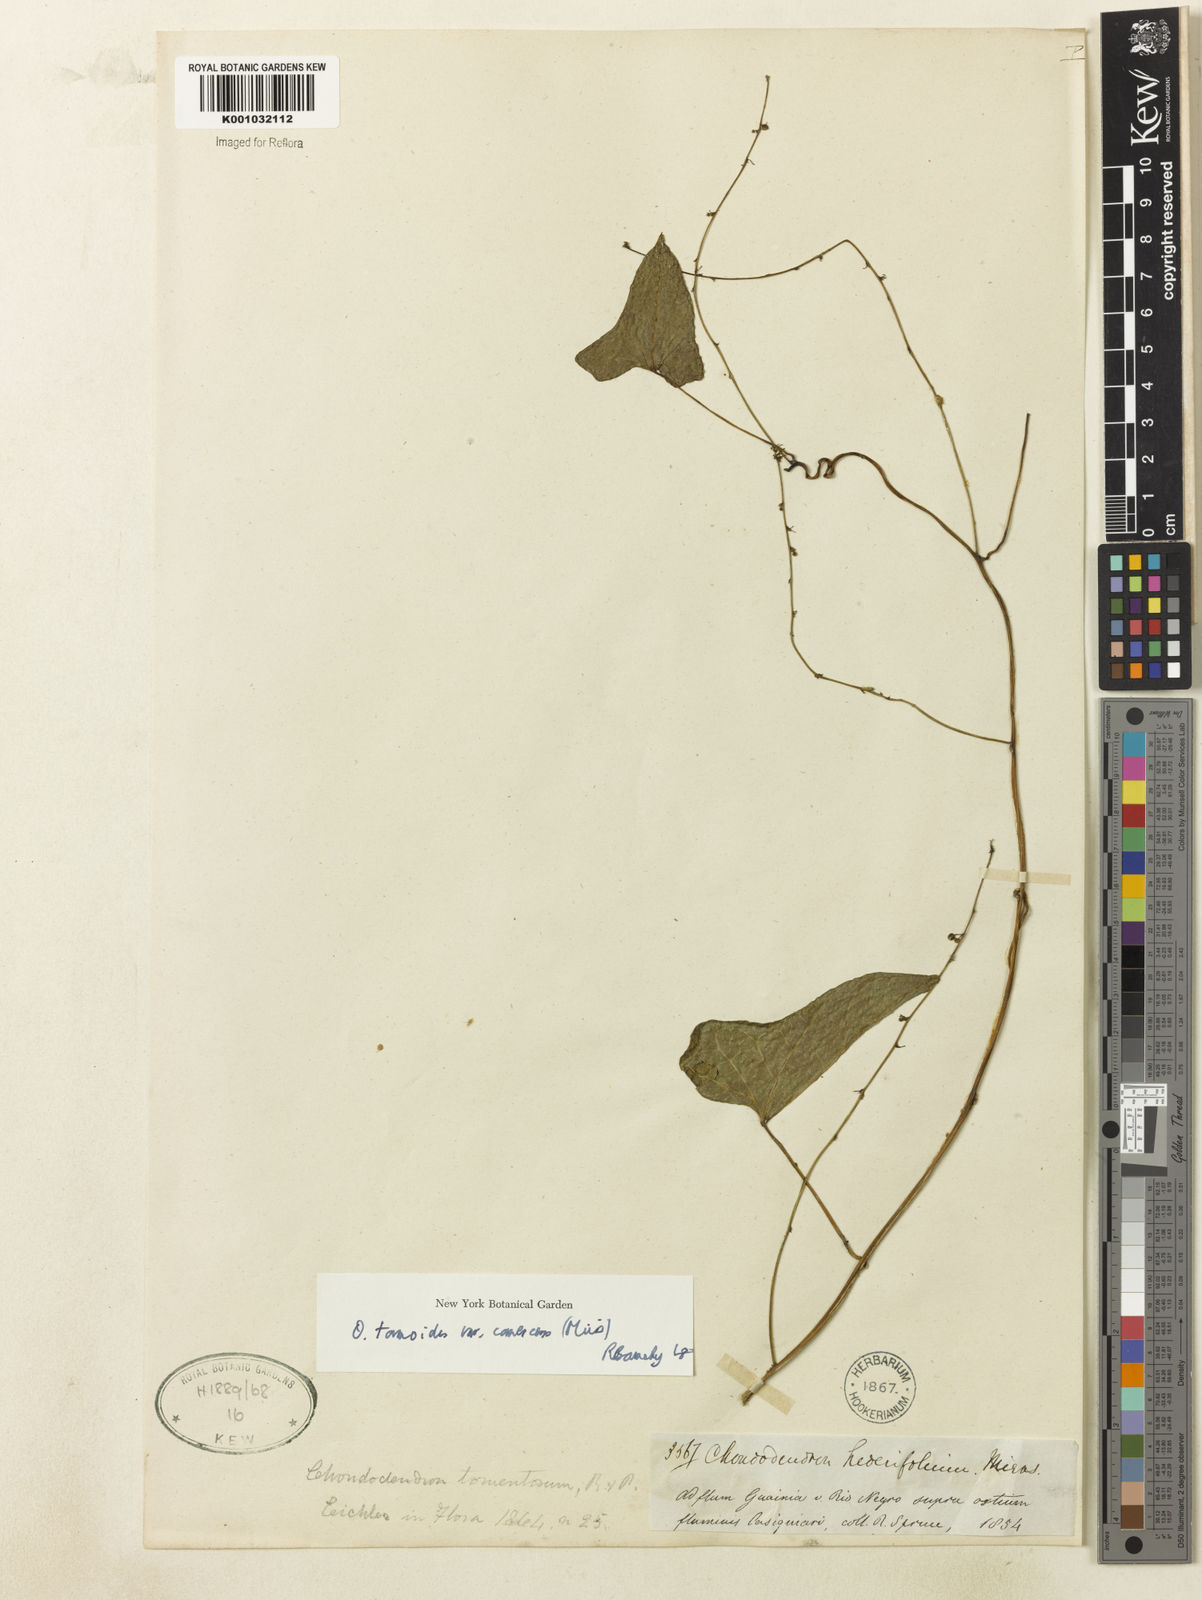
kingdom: Plantae
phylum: Tracheophyta
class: Magnoliopsida
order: Ranunculales
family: Menispermaceae
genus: Odontocarya
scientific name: Odontocarya tamoides
